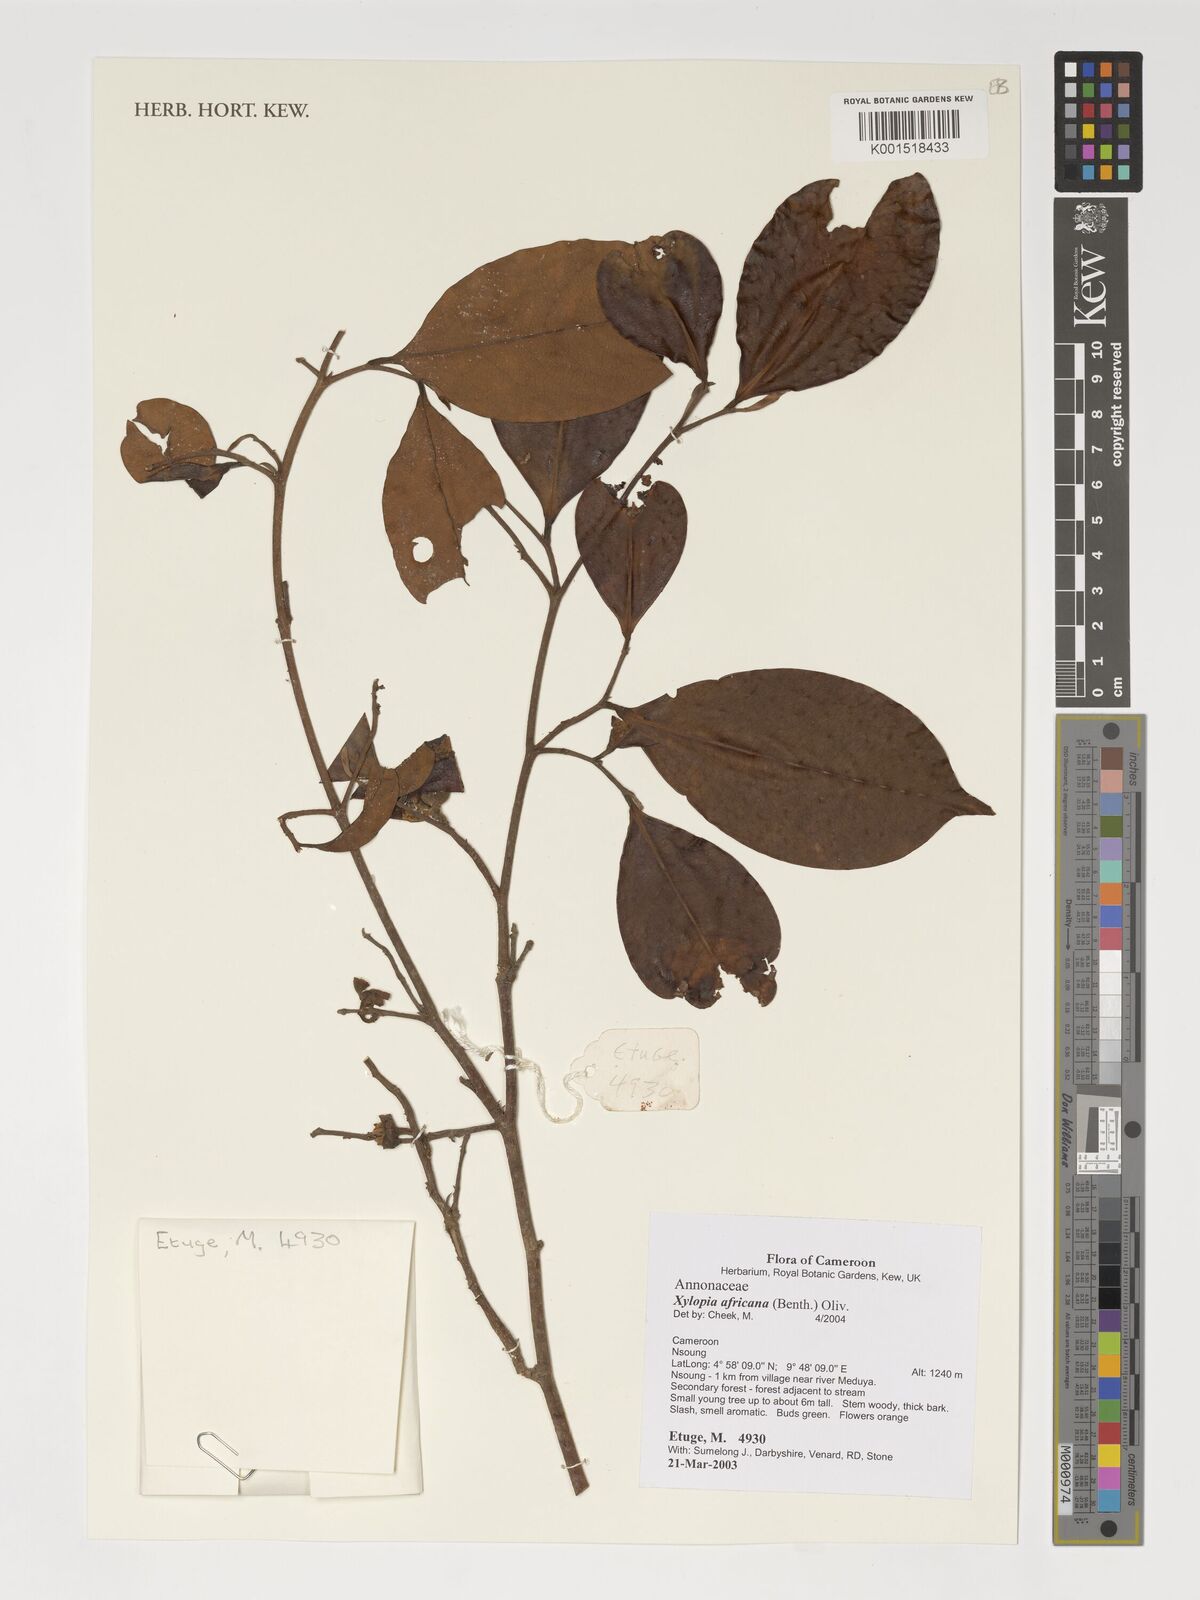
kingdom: Plantae
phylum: Tracheophyta
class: Magnoliopsida
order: Magnoliales
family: Annonaceae
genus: Xylopia
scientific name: Xylopia africana
